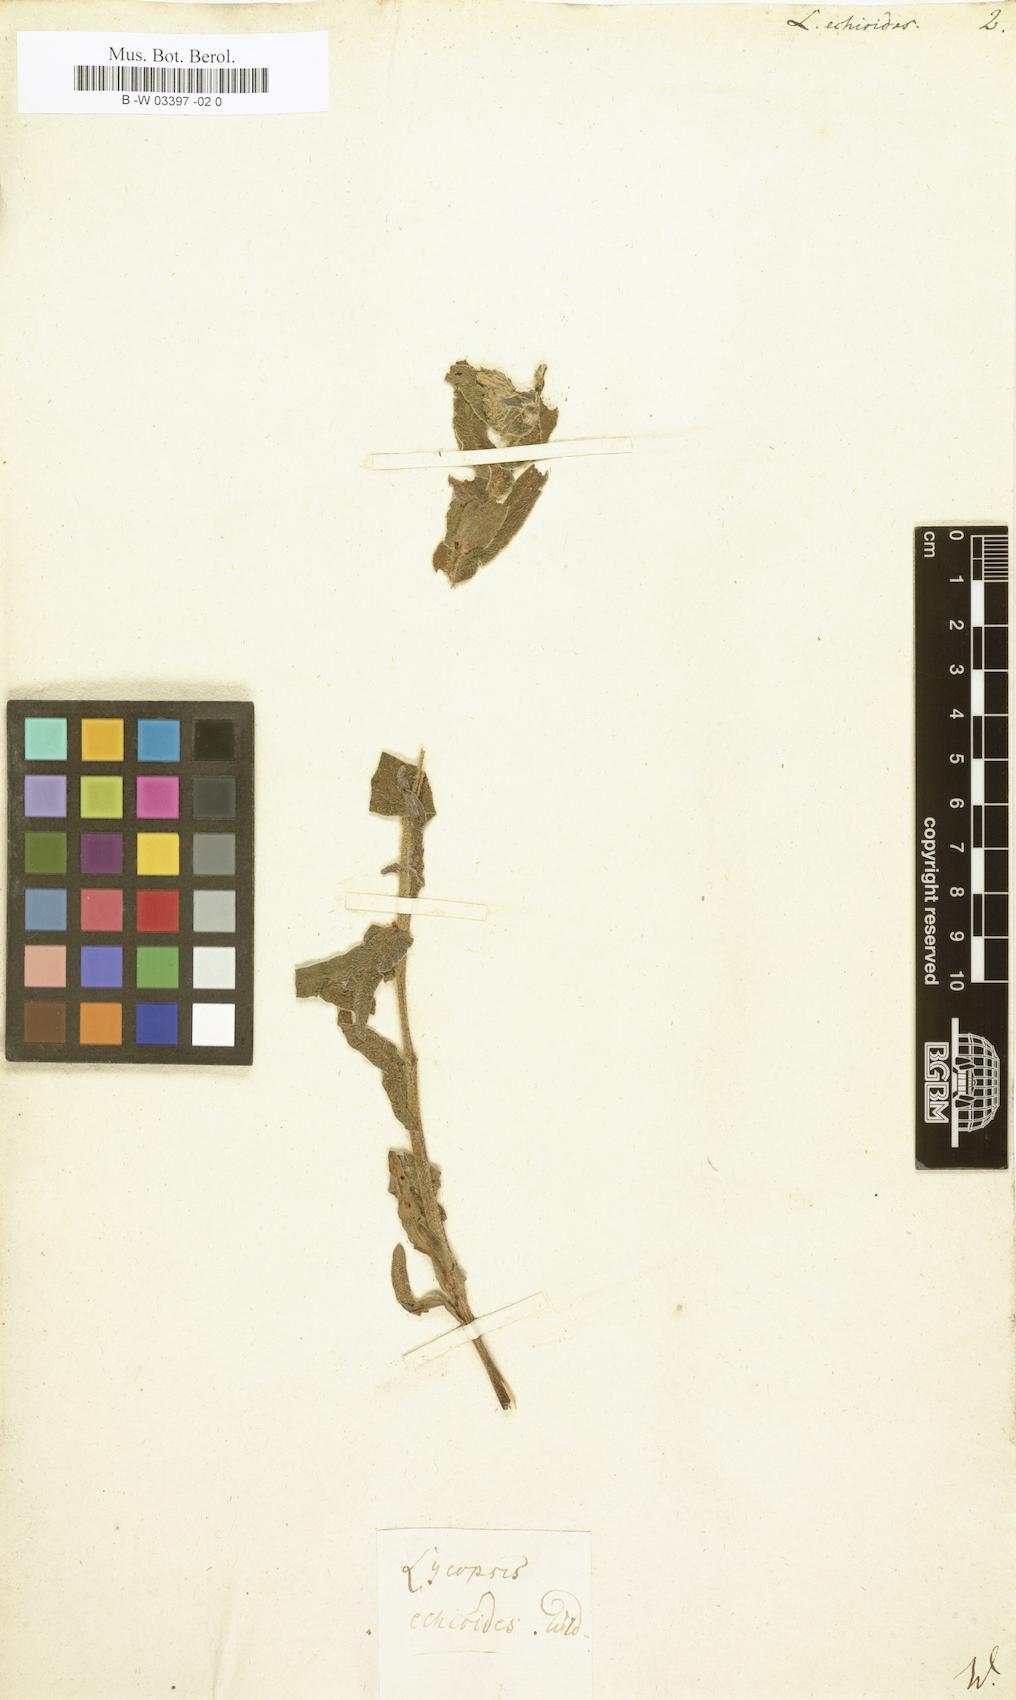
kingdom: Plantae
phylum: Tracheophyta
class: Magnoliopsida
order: Boraginales
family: Boraginaceae
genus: Nonea
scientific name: Nonea echioides
